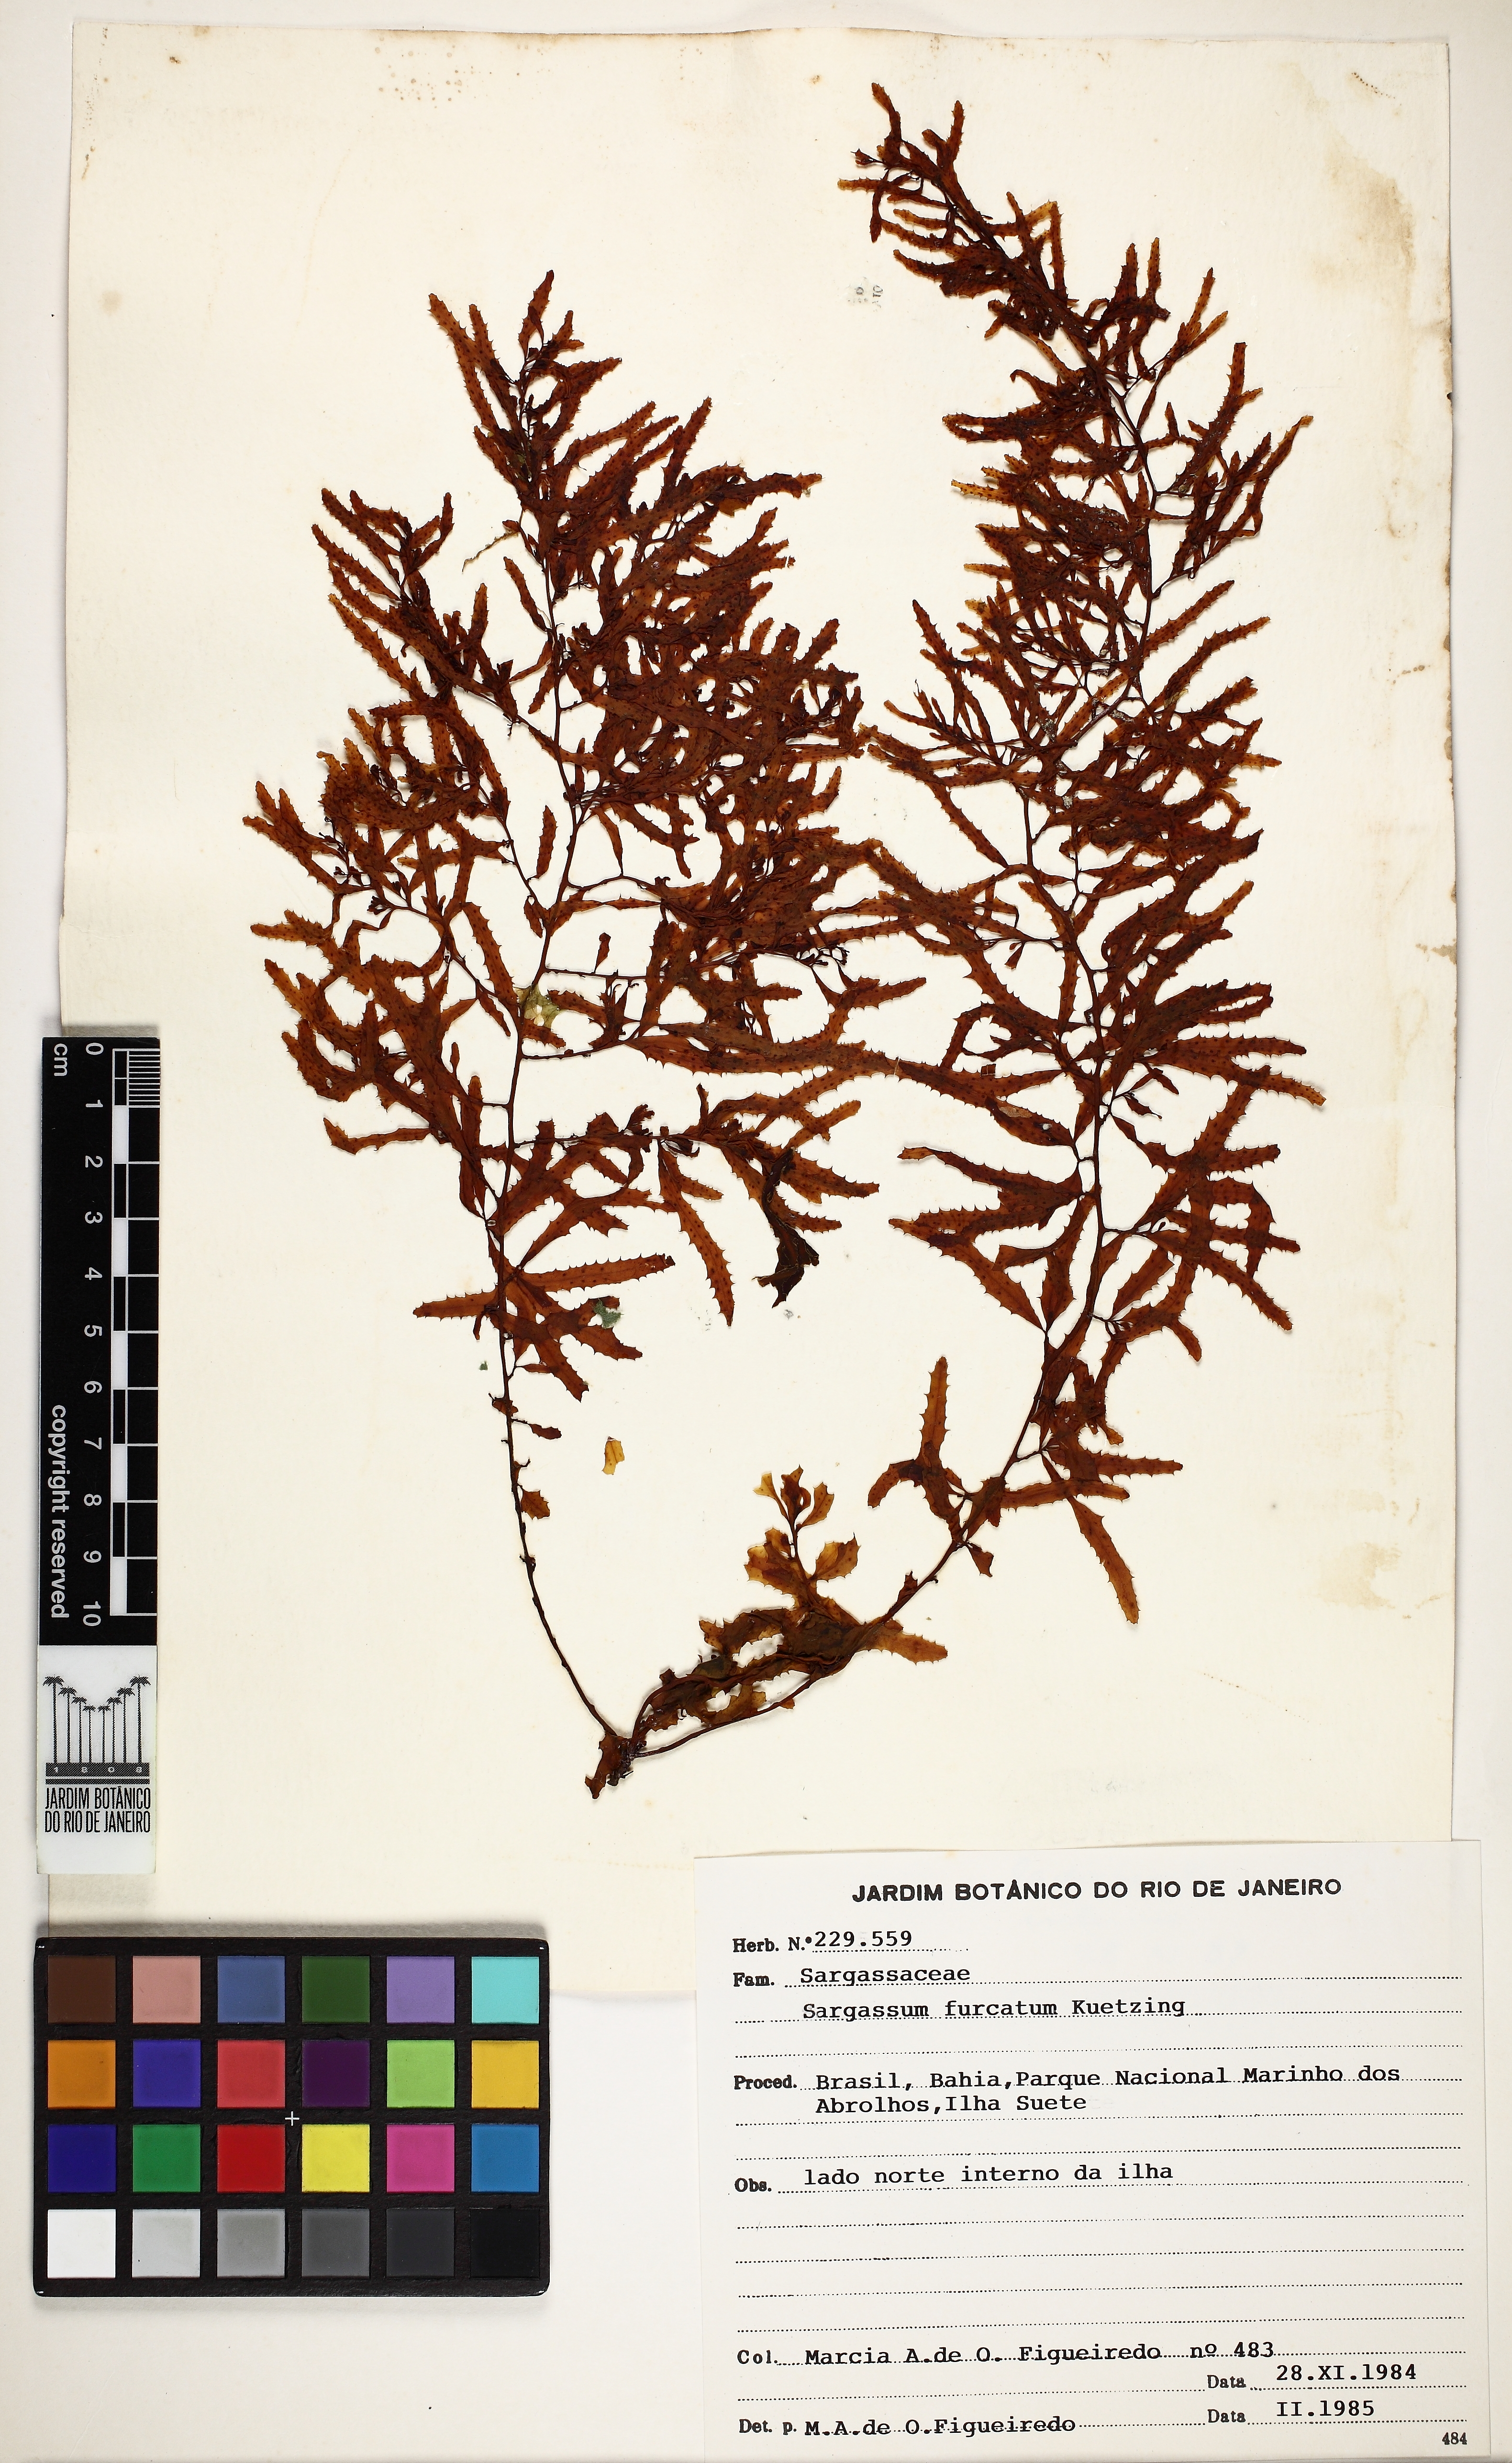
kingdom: Chromista
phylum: Ochrophyta
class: Phaeophyceae
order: Fucales
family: Sargassaceae
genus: Sargassum
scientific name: Sargassum furcatum
